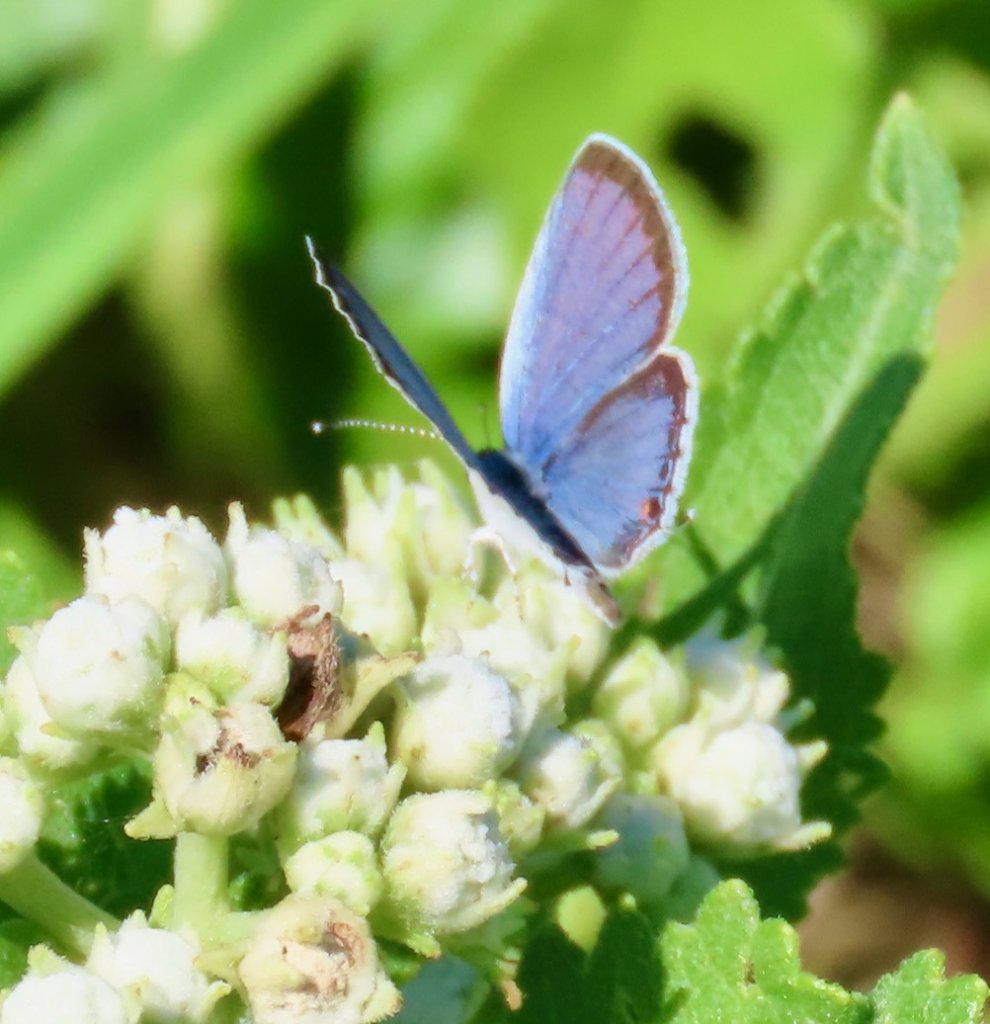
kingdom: Animalia
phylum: Arthropoda
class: Insecta
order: Lepidoptera
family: Lycaenidae
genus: Elkalyce
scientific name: Elkalyce comyntas
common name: Eastern Tailed-Blue
